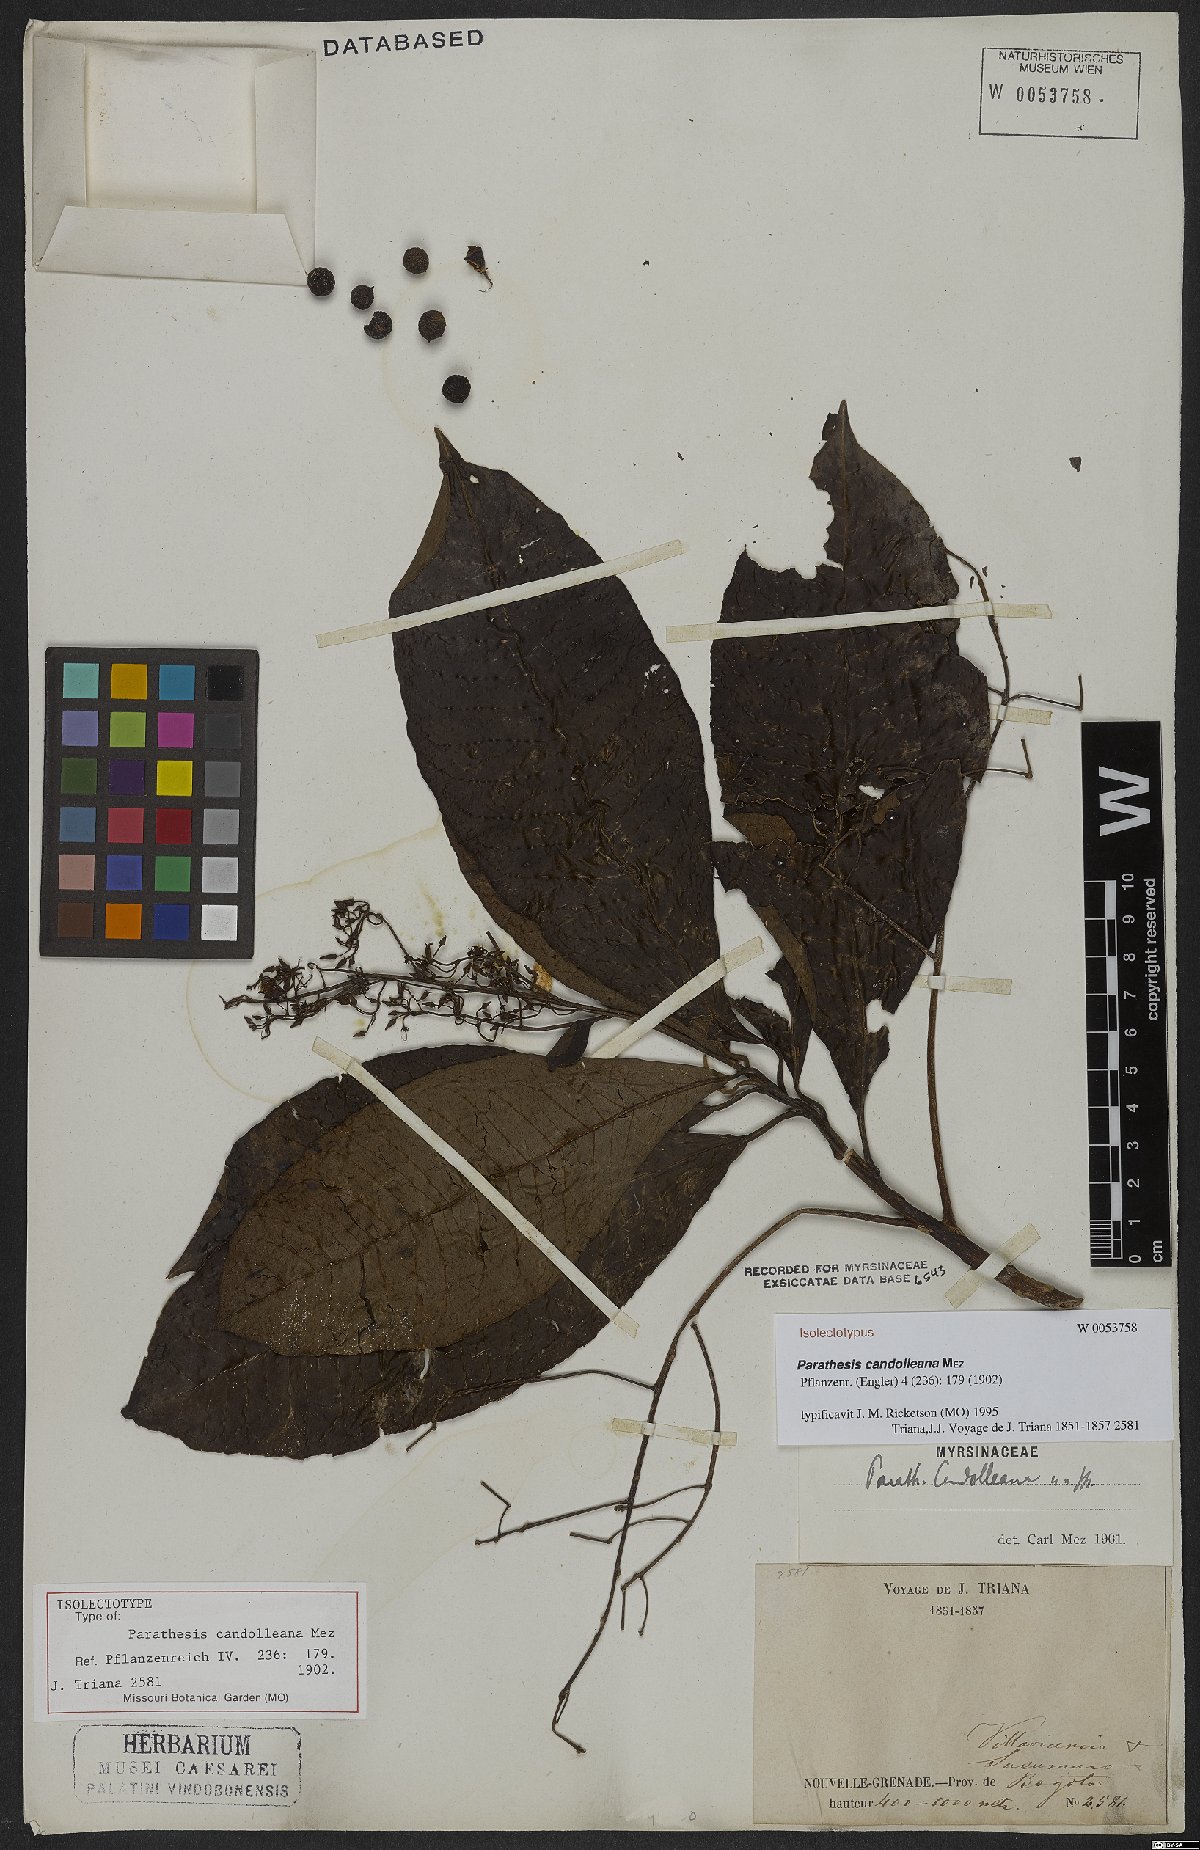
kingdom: Plantae
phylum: Tracheophyta
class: Magnoliopsida
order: Ericales
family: Primulaceae
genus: Parathesis
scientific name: Parathesis candolleana
